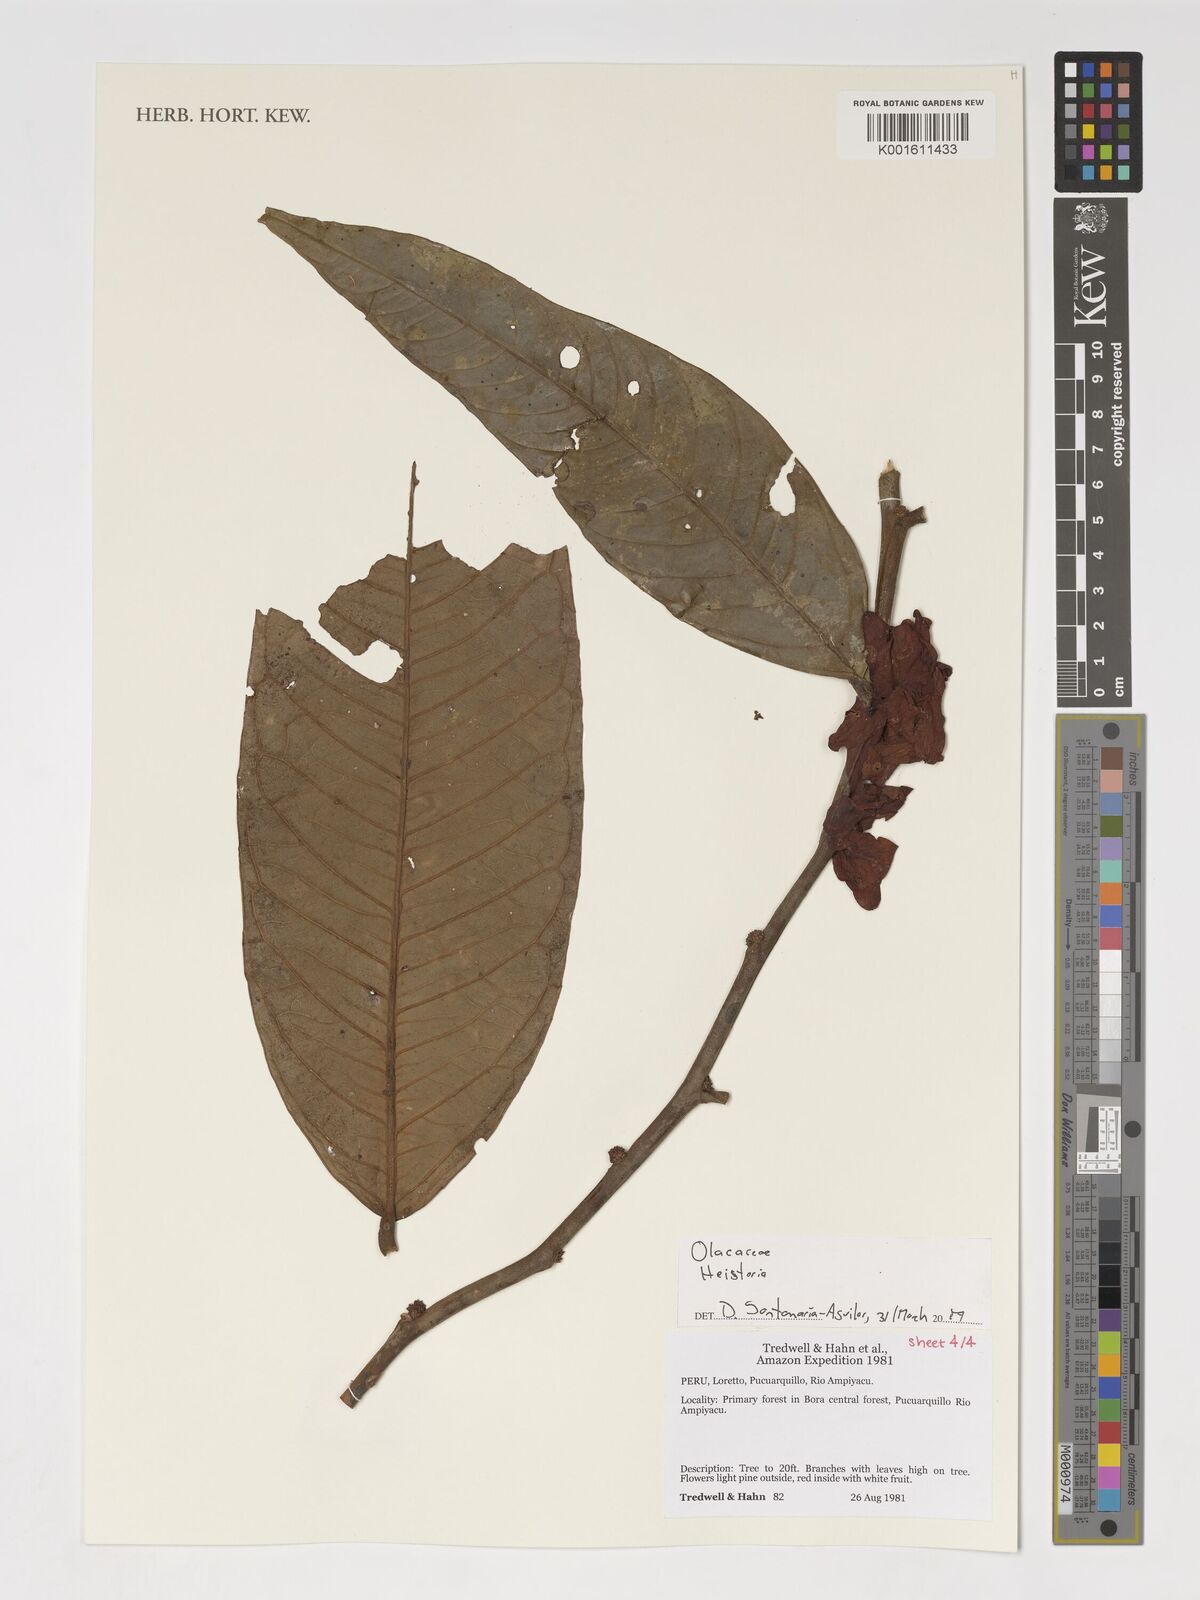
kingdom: Plantae
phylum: Tracheophyta
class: Magnoliopsida
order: Santalales
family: Erythropalaceae
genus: Heisteria
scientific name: Heisteria
